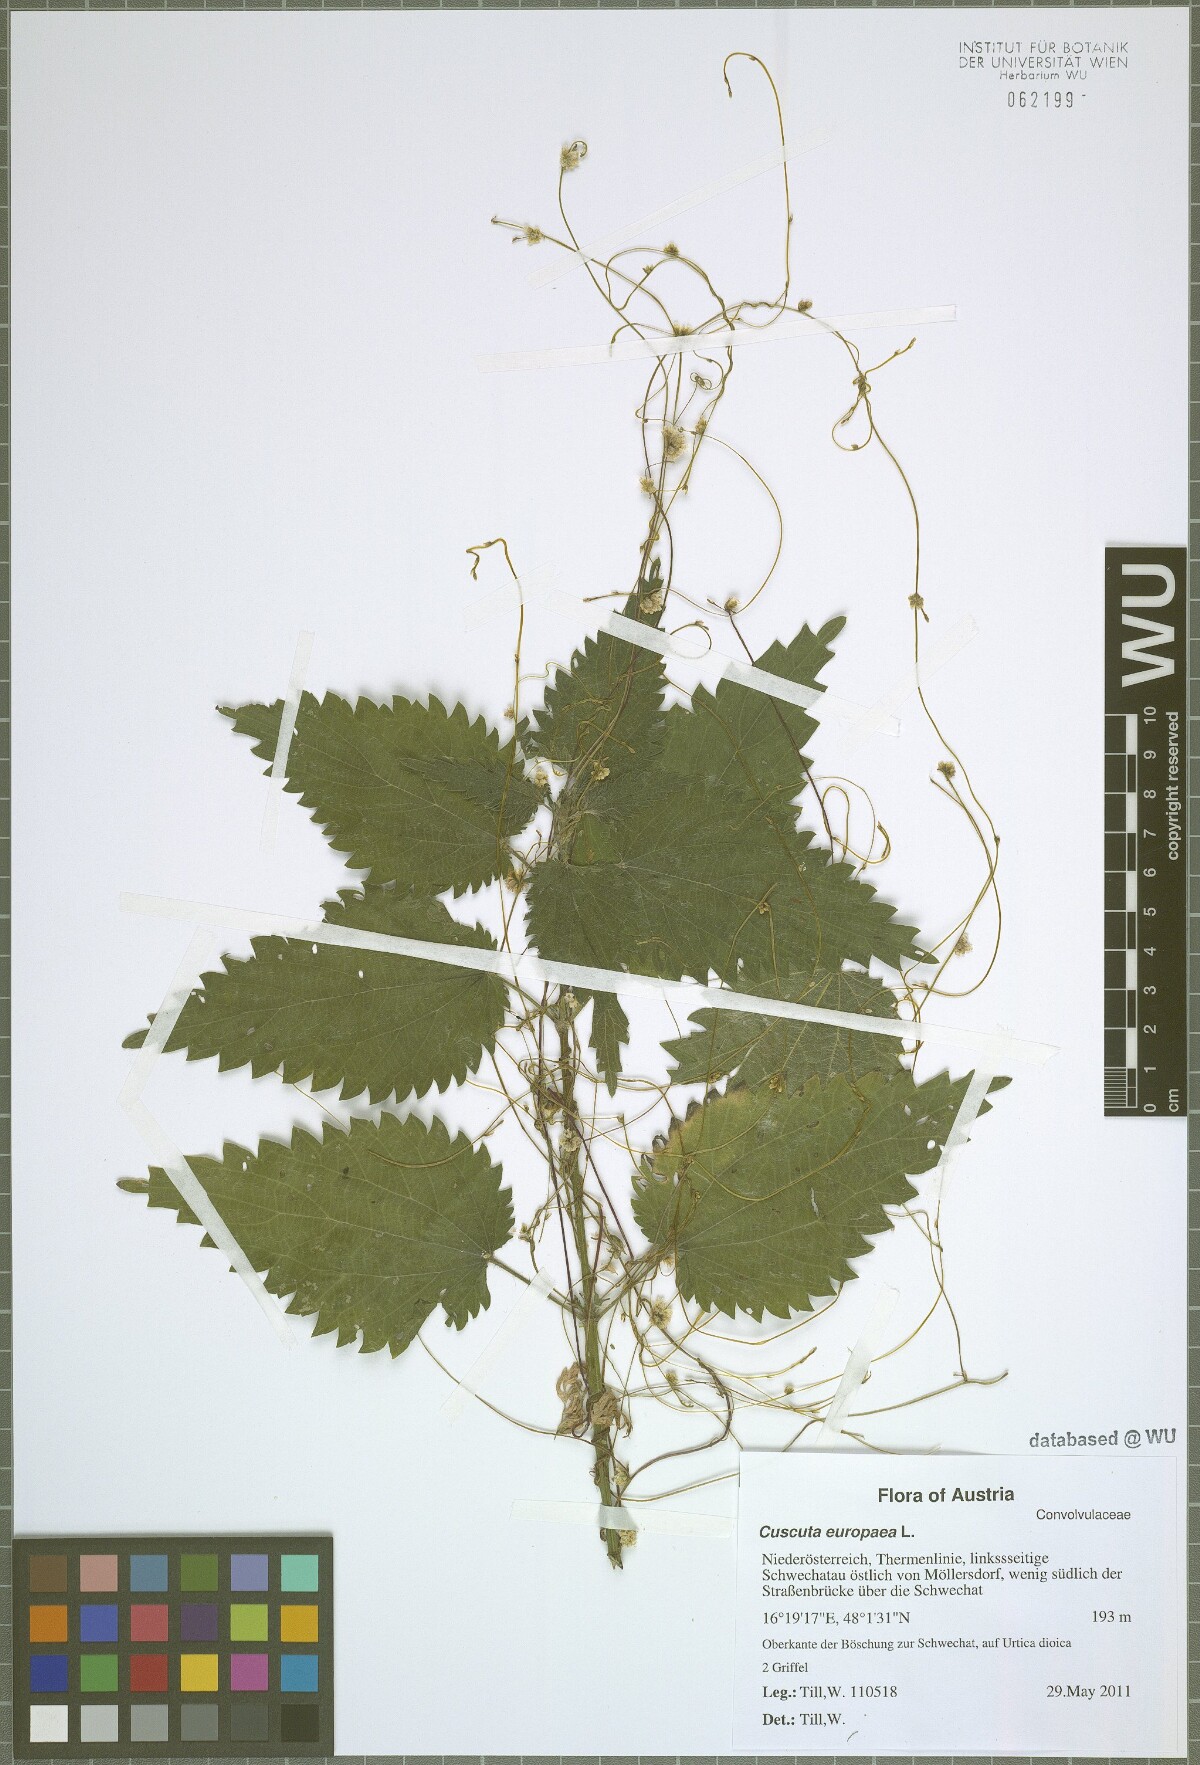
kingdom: Plantae
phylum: Tracheophyta
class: Magnoliopsida
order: Solanales
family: Convolvulaceae
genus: Cuscuta
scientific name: Cuscuta europaea
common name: Greater dodder
